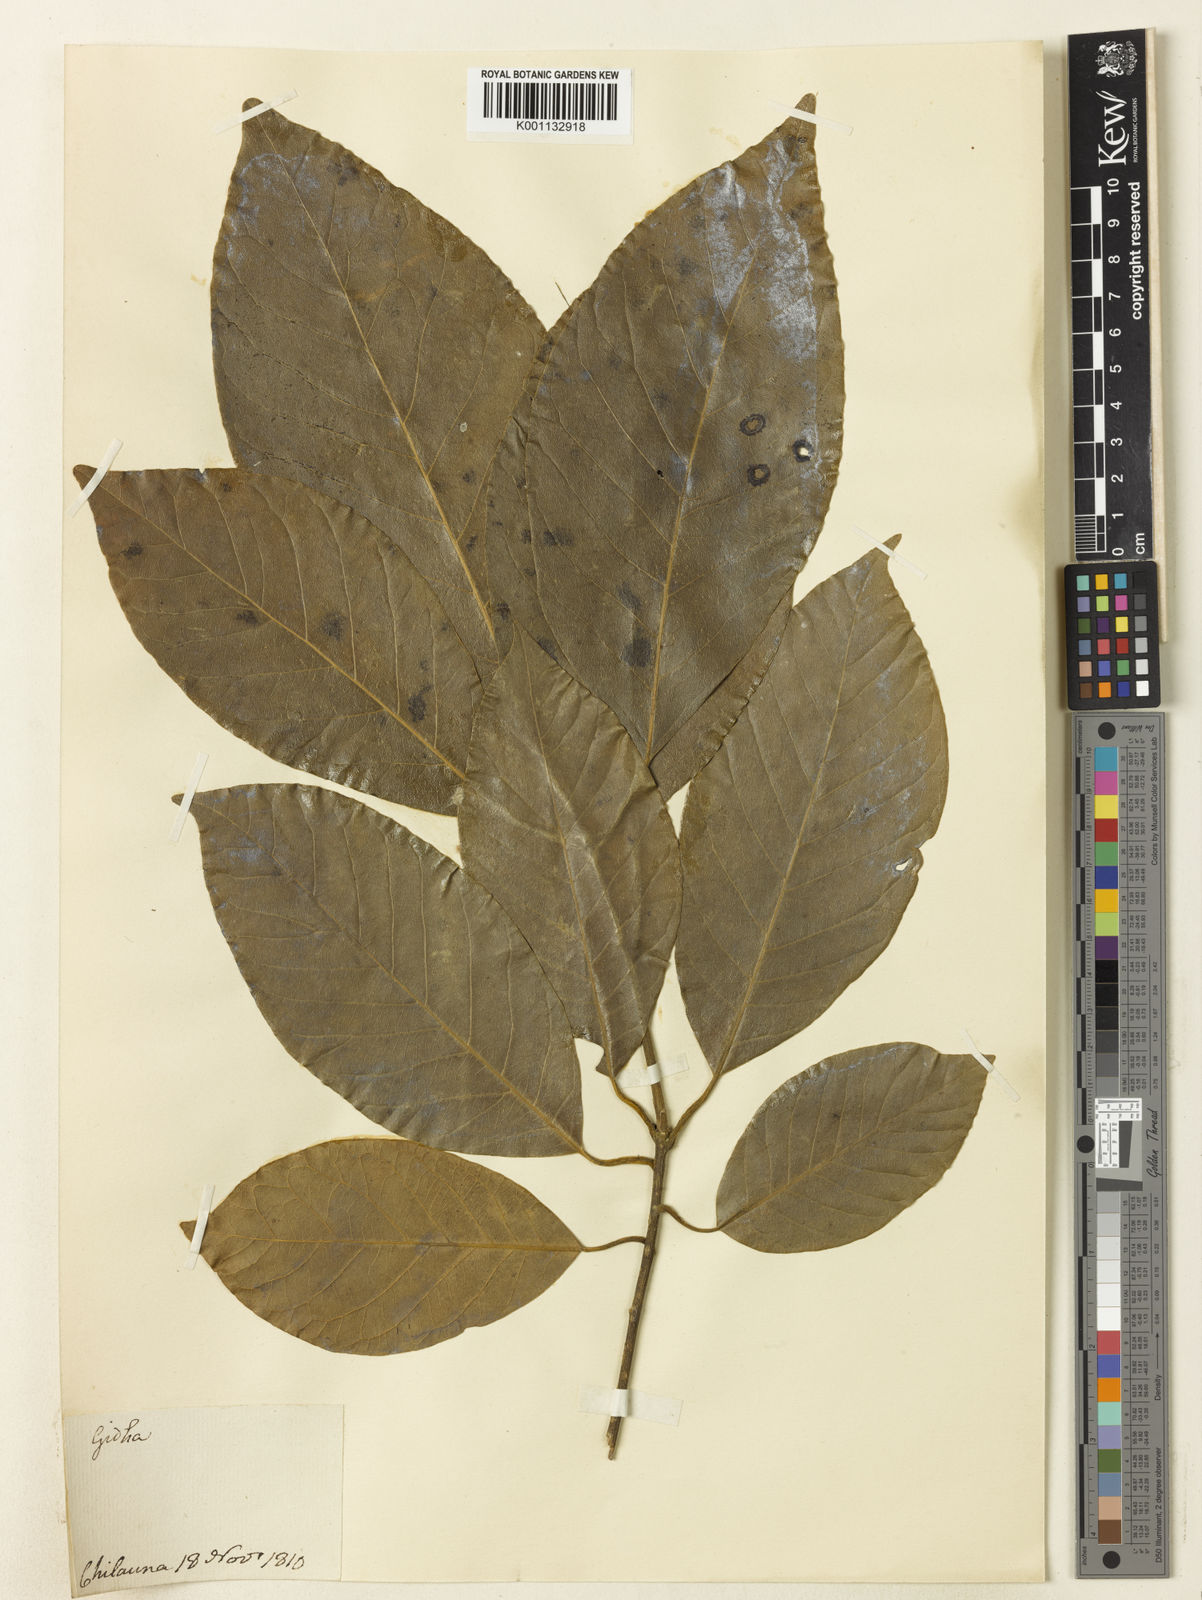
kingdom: Plantae
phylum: Tracheophyta
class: Magnoliopsida
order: Laurales
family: Lauraceae
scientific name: Lauraceae
